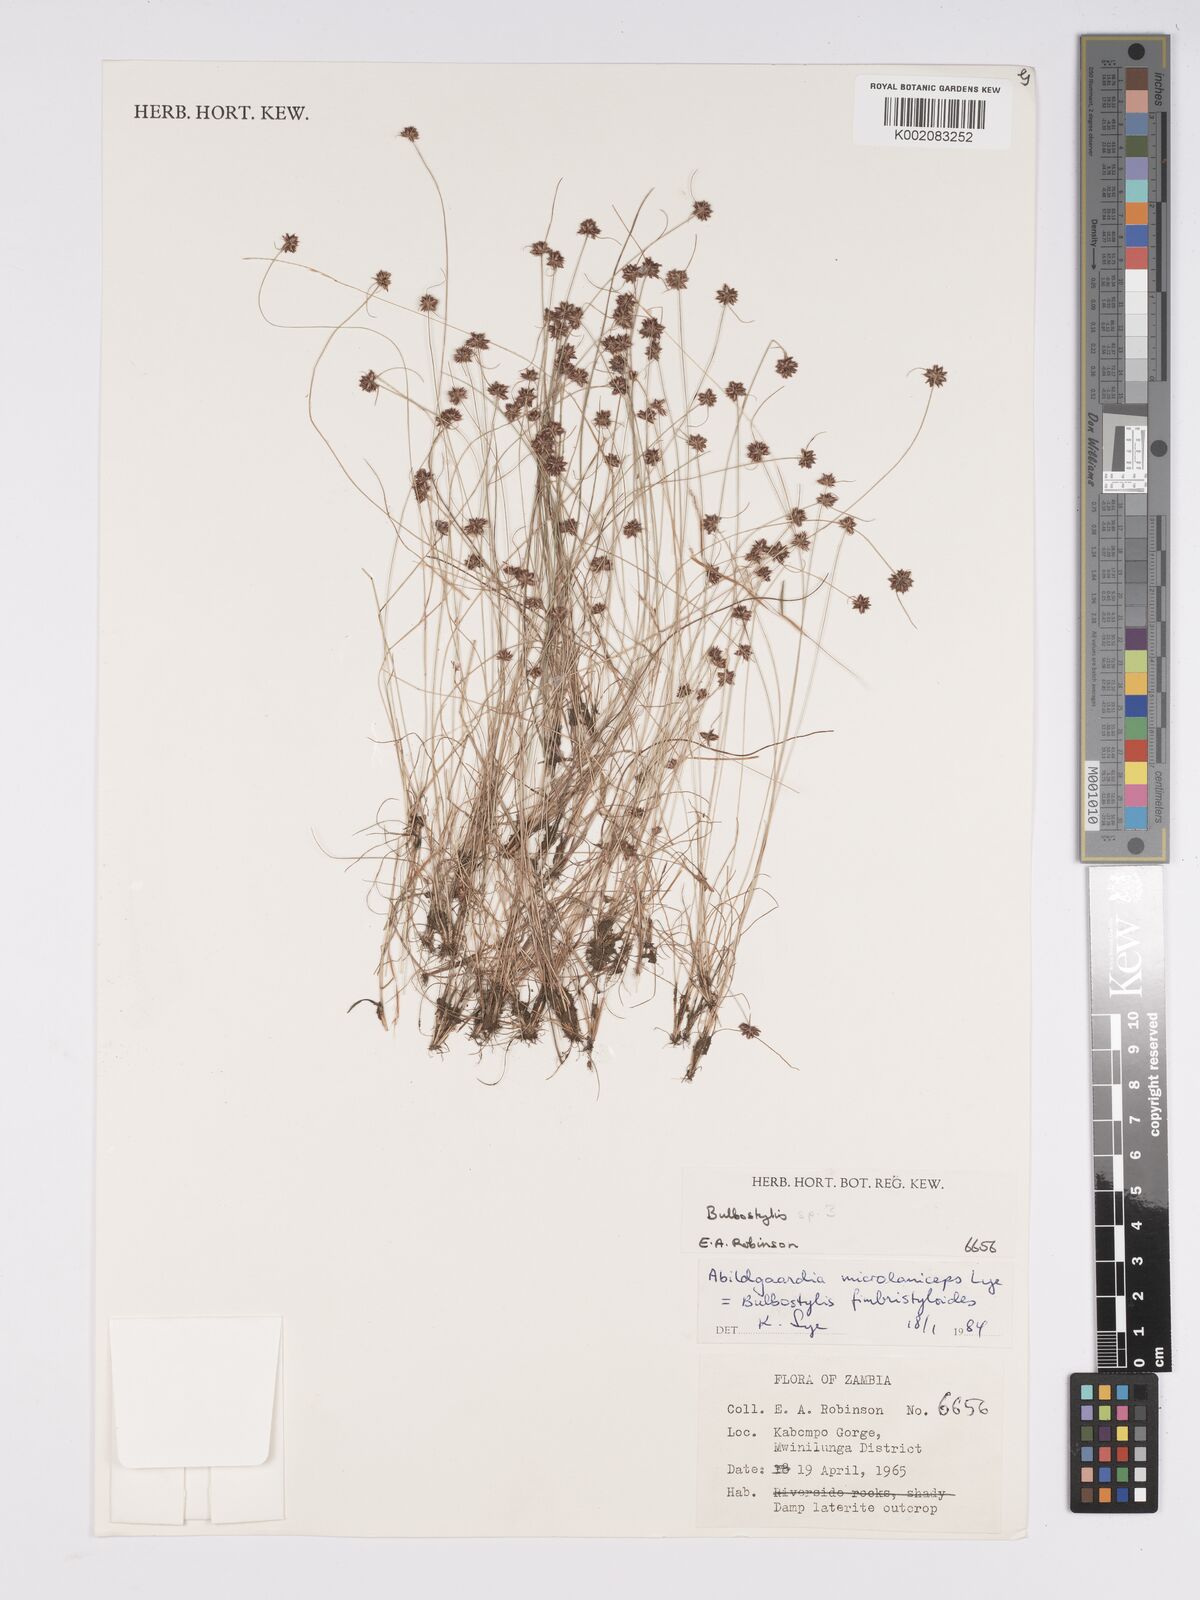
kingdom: Plantae
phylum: Tracheophyta
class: Liliopsida
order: Poales
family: Cyperaceae
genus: Bulbostylis
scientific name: Bulbostylis fimbristyloides
